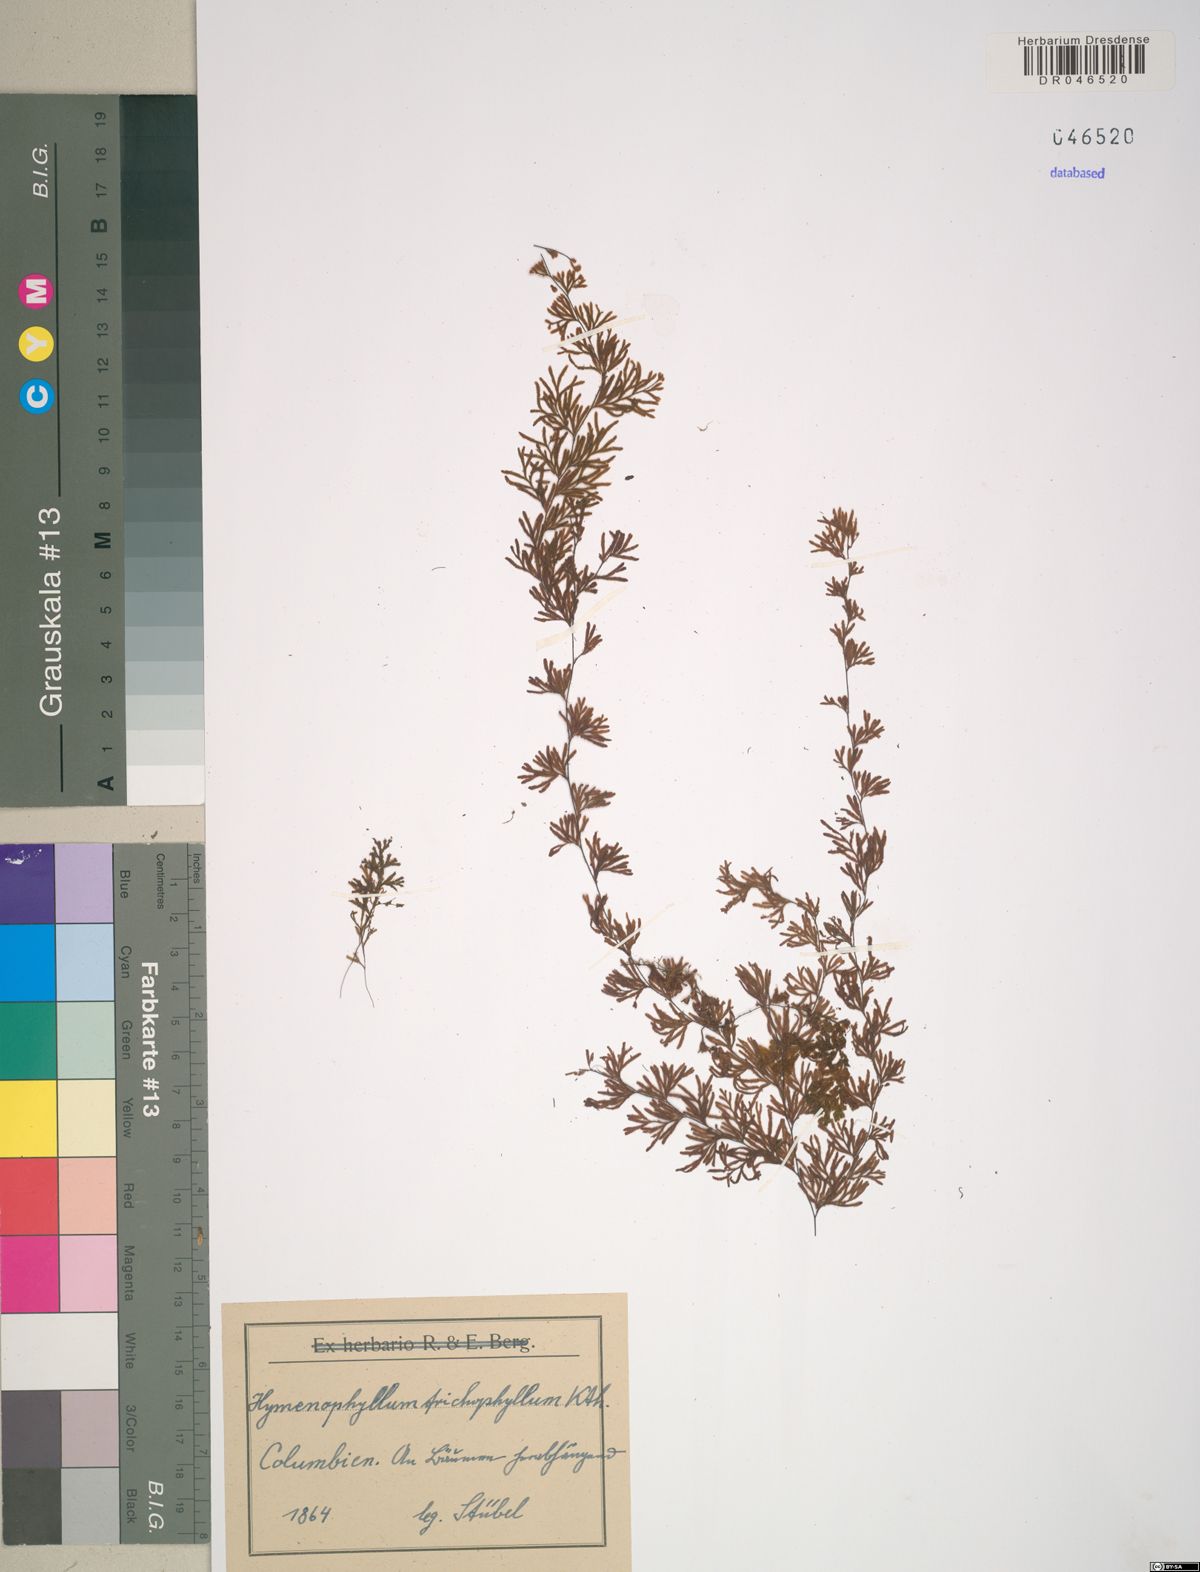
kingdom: Plantae
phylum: Tracheophyta
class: Polypodiopsida
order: Hymenophyllales
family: Hymenophyllaceae
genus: Hymenophyllum
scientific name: Hymenophyllum trichophyllum
